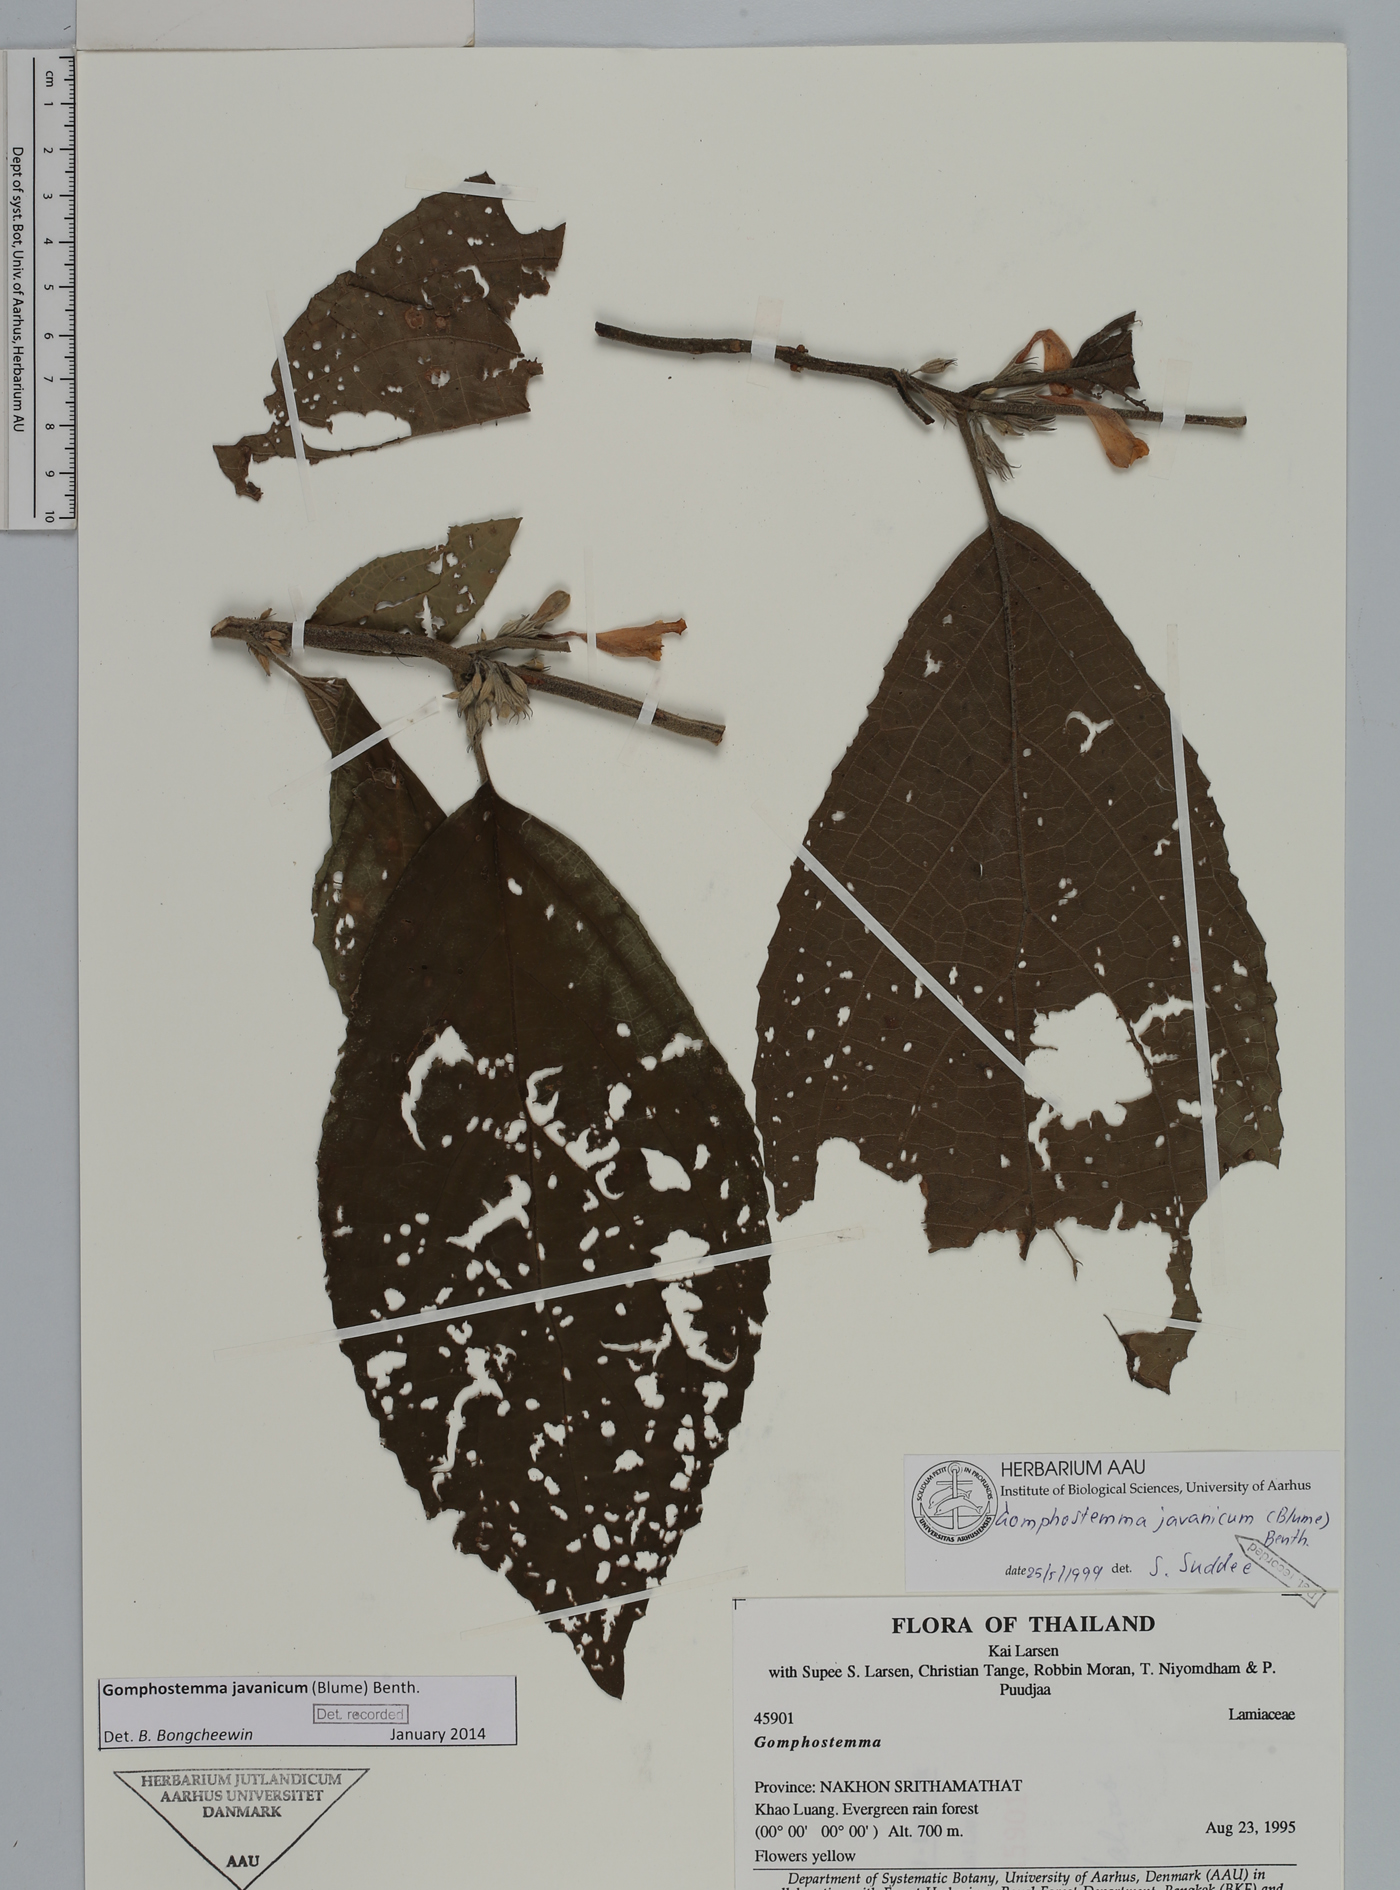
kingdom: Plantae
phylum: Tracheophyta
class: Magnoliopsida
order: Lamiales
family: Lamiaceae
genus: Gomphostemma
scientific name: Gomphostemma javanicum
